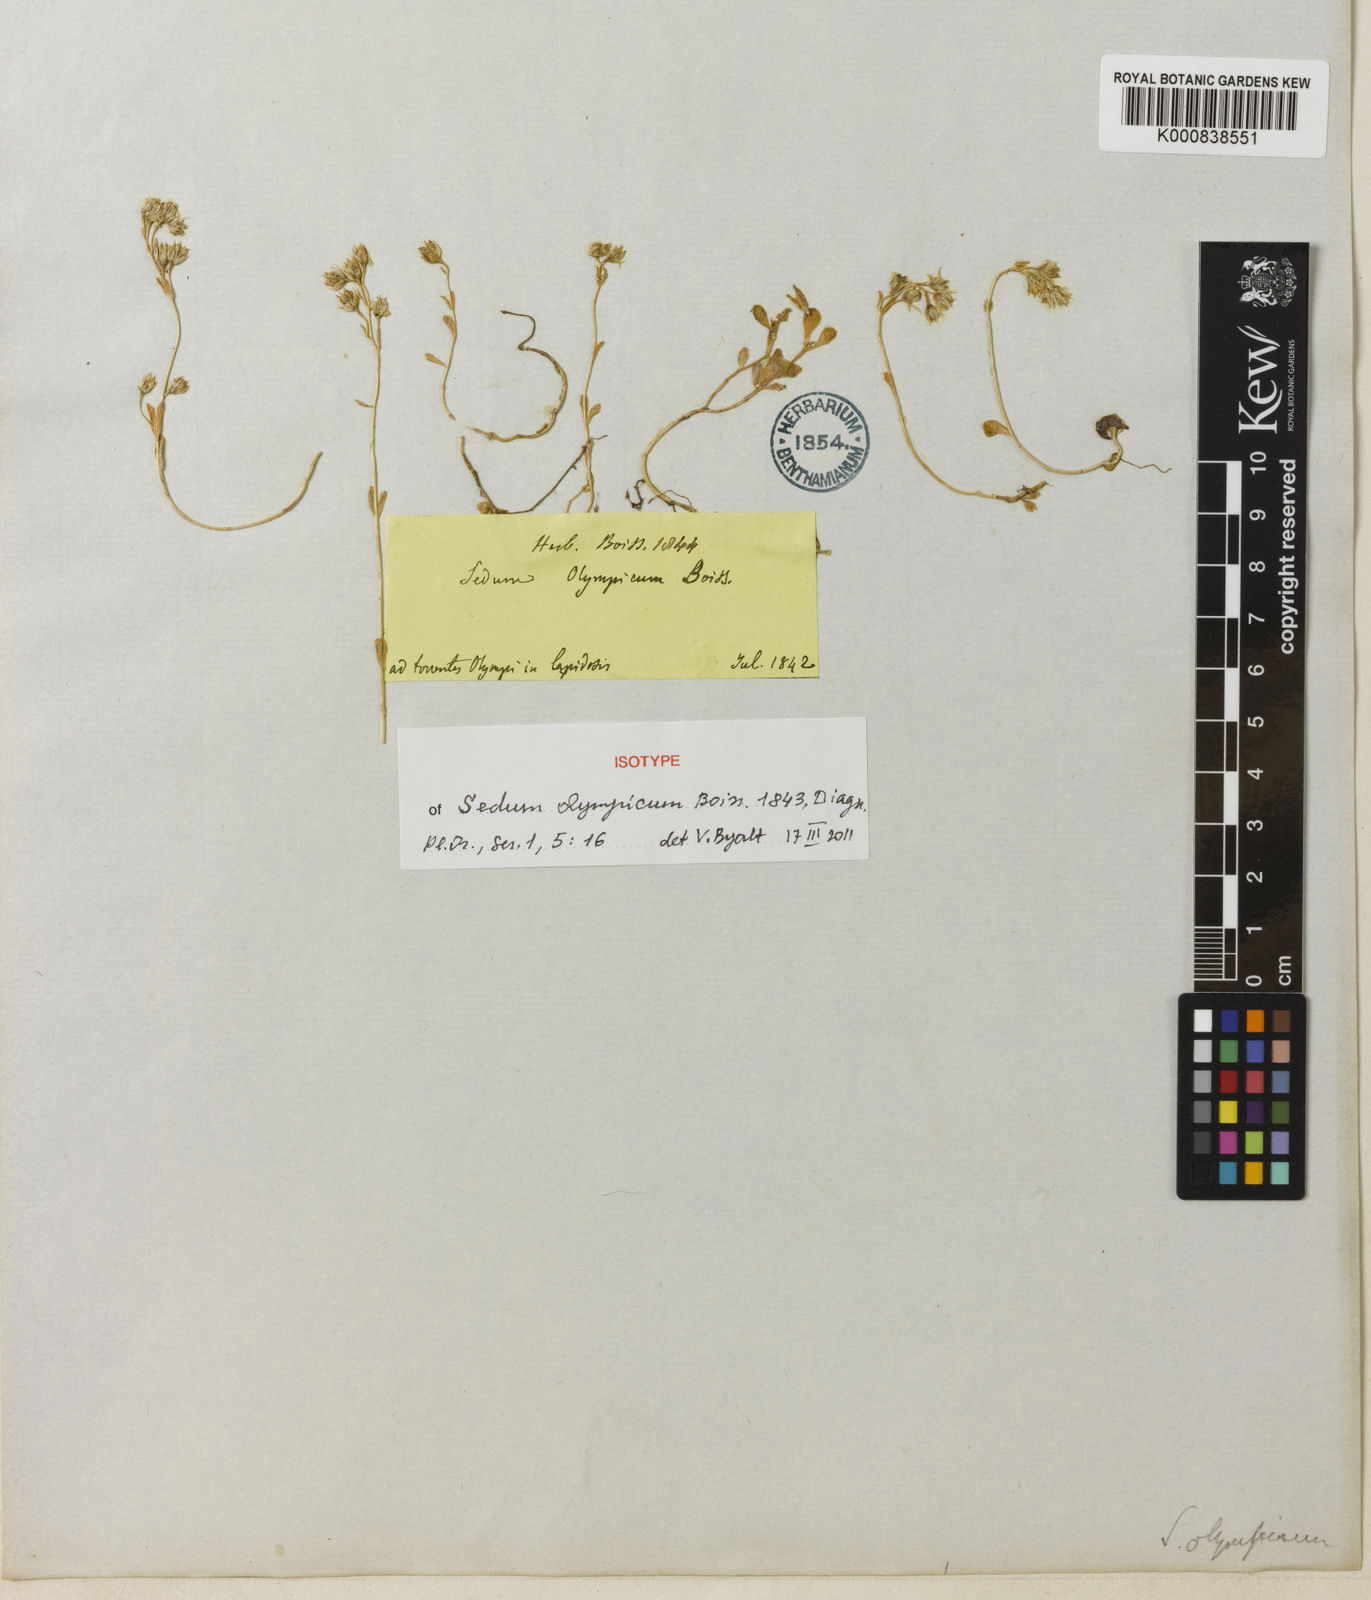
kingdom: Plantae
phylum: Tracheophyta
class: Magnoliopsida
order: Saxifragales
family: Crassulaceae
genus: Sedum
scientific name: Sedum magellense
